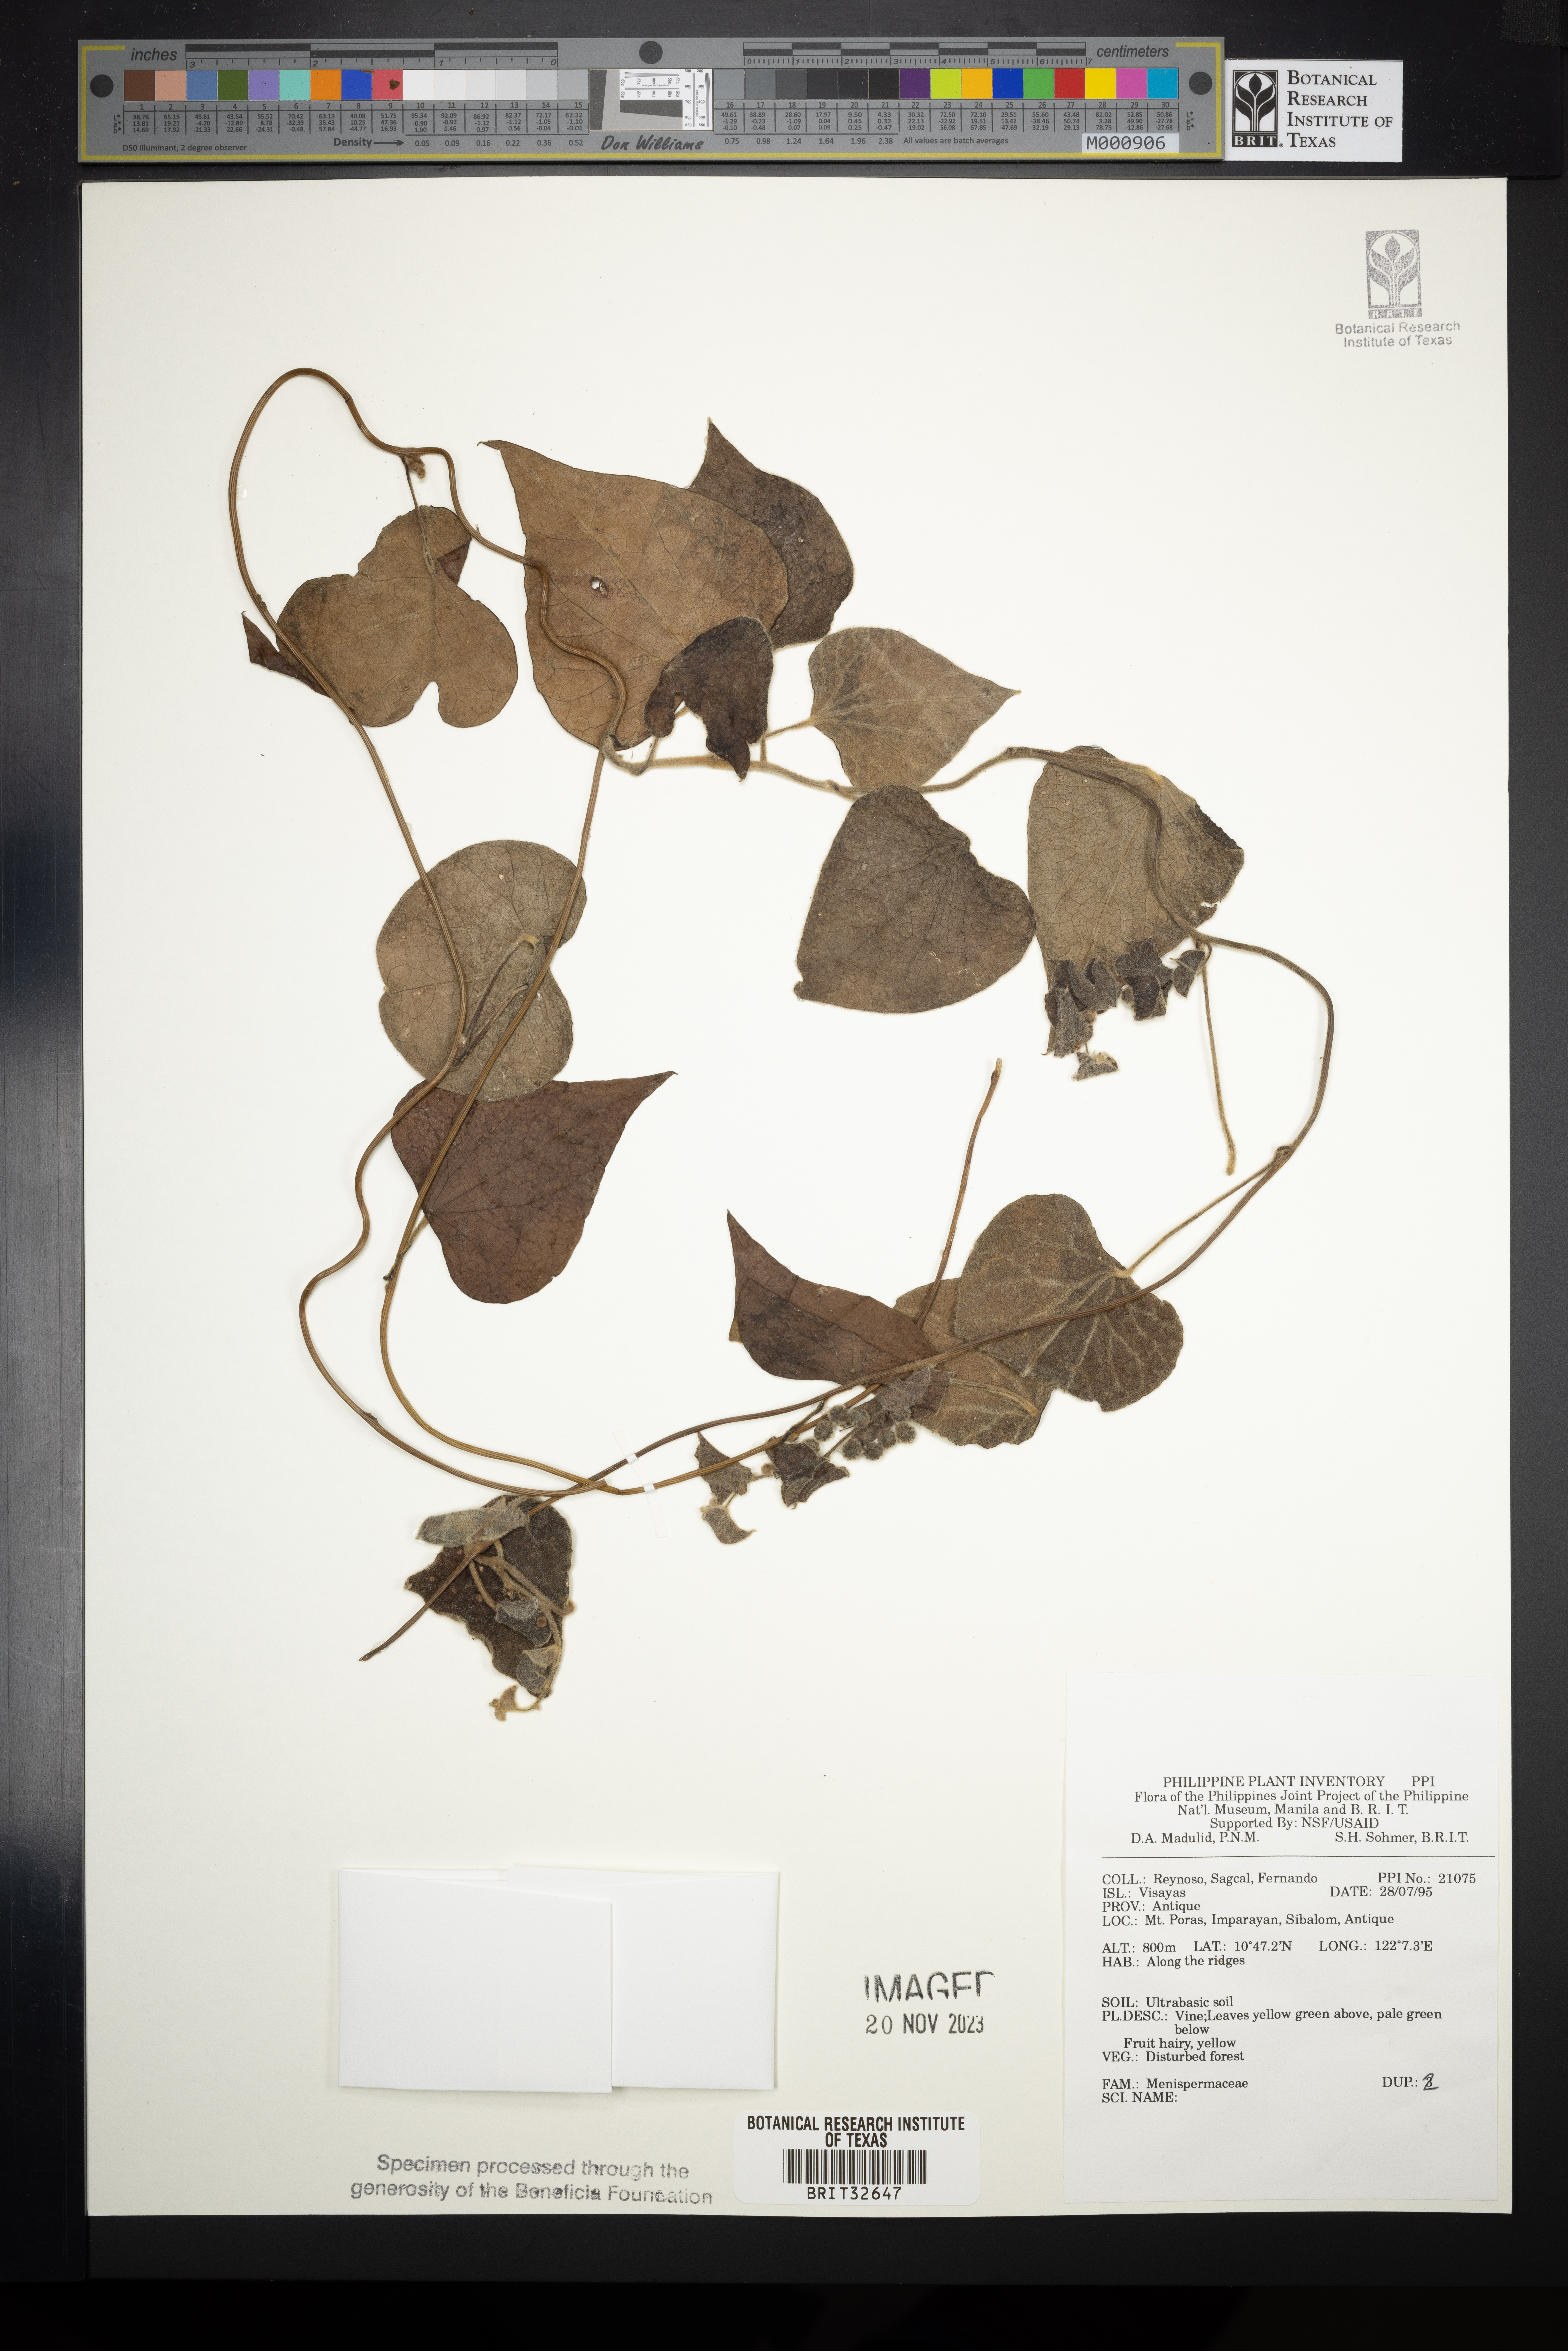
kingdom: Plantae
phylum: Tracheophyta
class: Magnoliopsida
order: Ranunculales
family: Menispermaceae
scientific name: Menispermaceae
